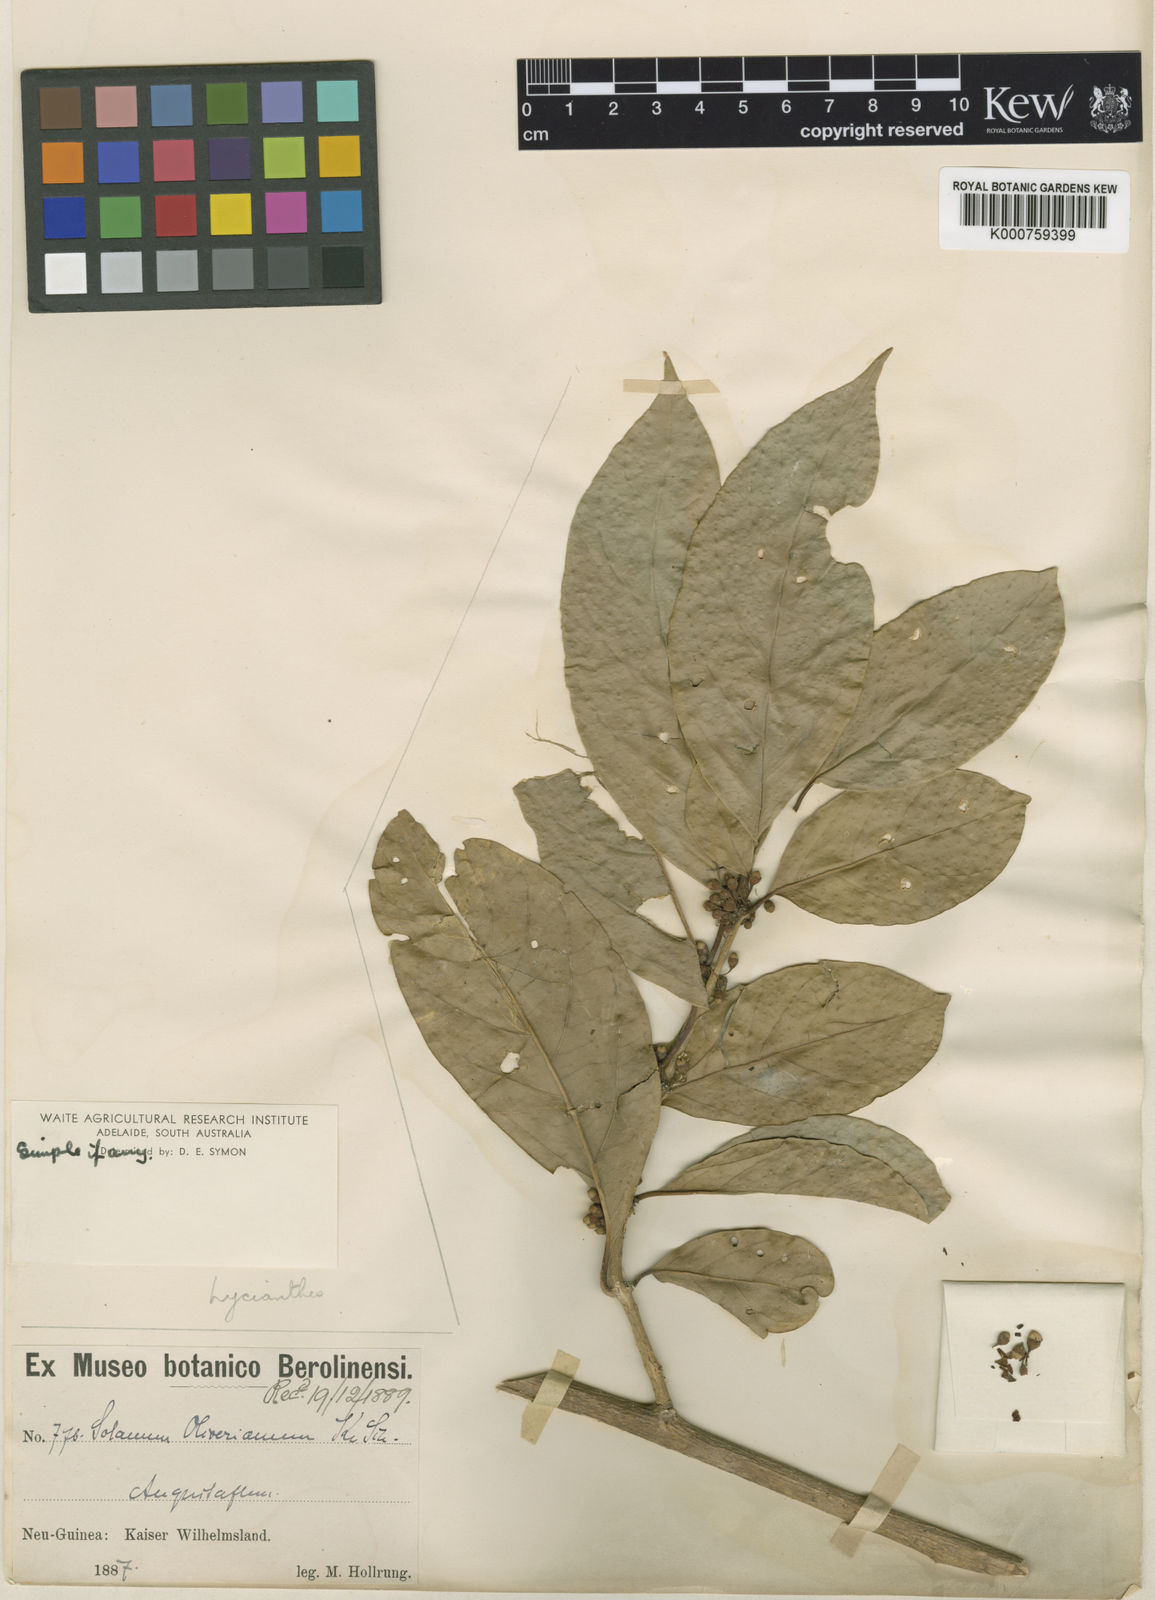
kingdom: Plantae
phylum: Tracheophyta
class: Magnoliopsida
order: Solanales
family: Solanaceae
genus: Lycianthes
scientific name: Lycianthes oliveriana
